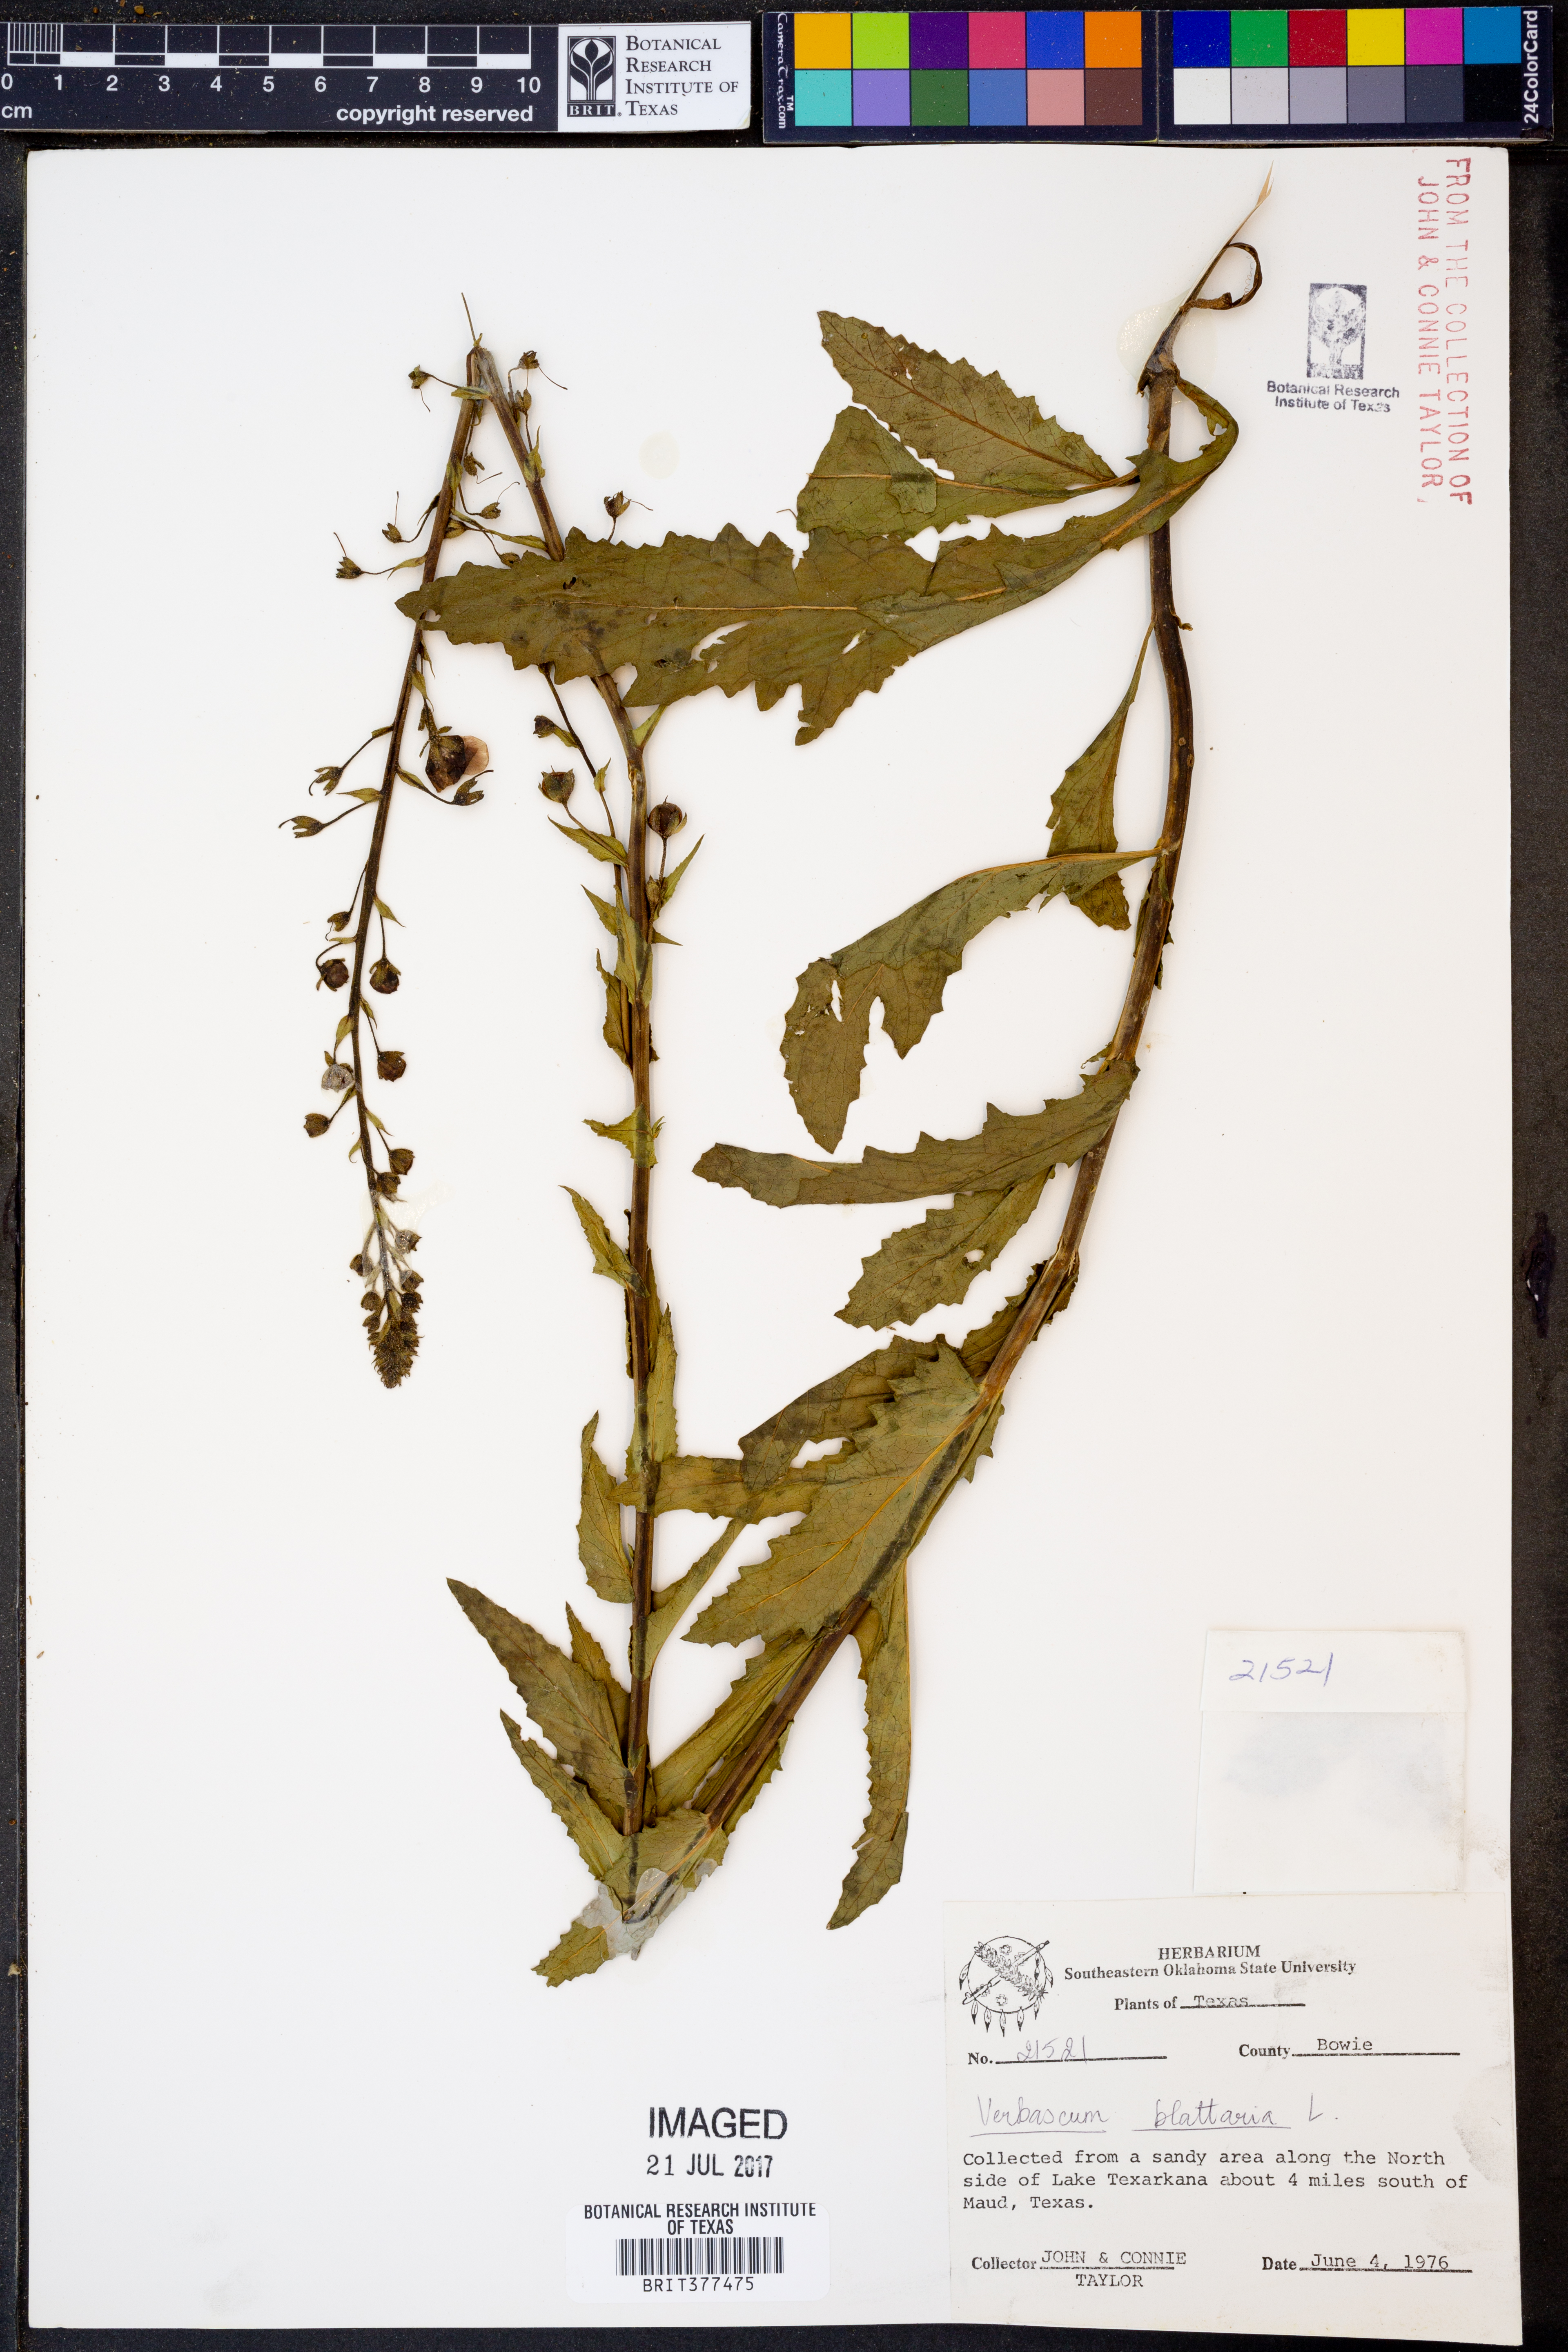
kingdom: Plantae
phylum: Tracheophyta
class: Magnoliopsida
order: Lamiales
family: Scrophulariaceae
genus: Verbascum
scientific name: Verbascum blattaria
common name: Moth mullein
